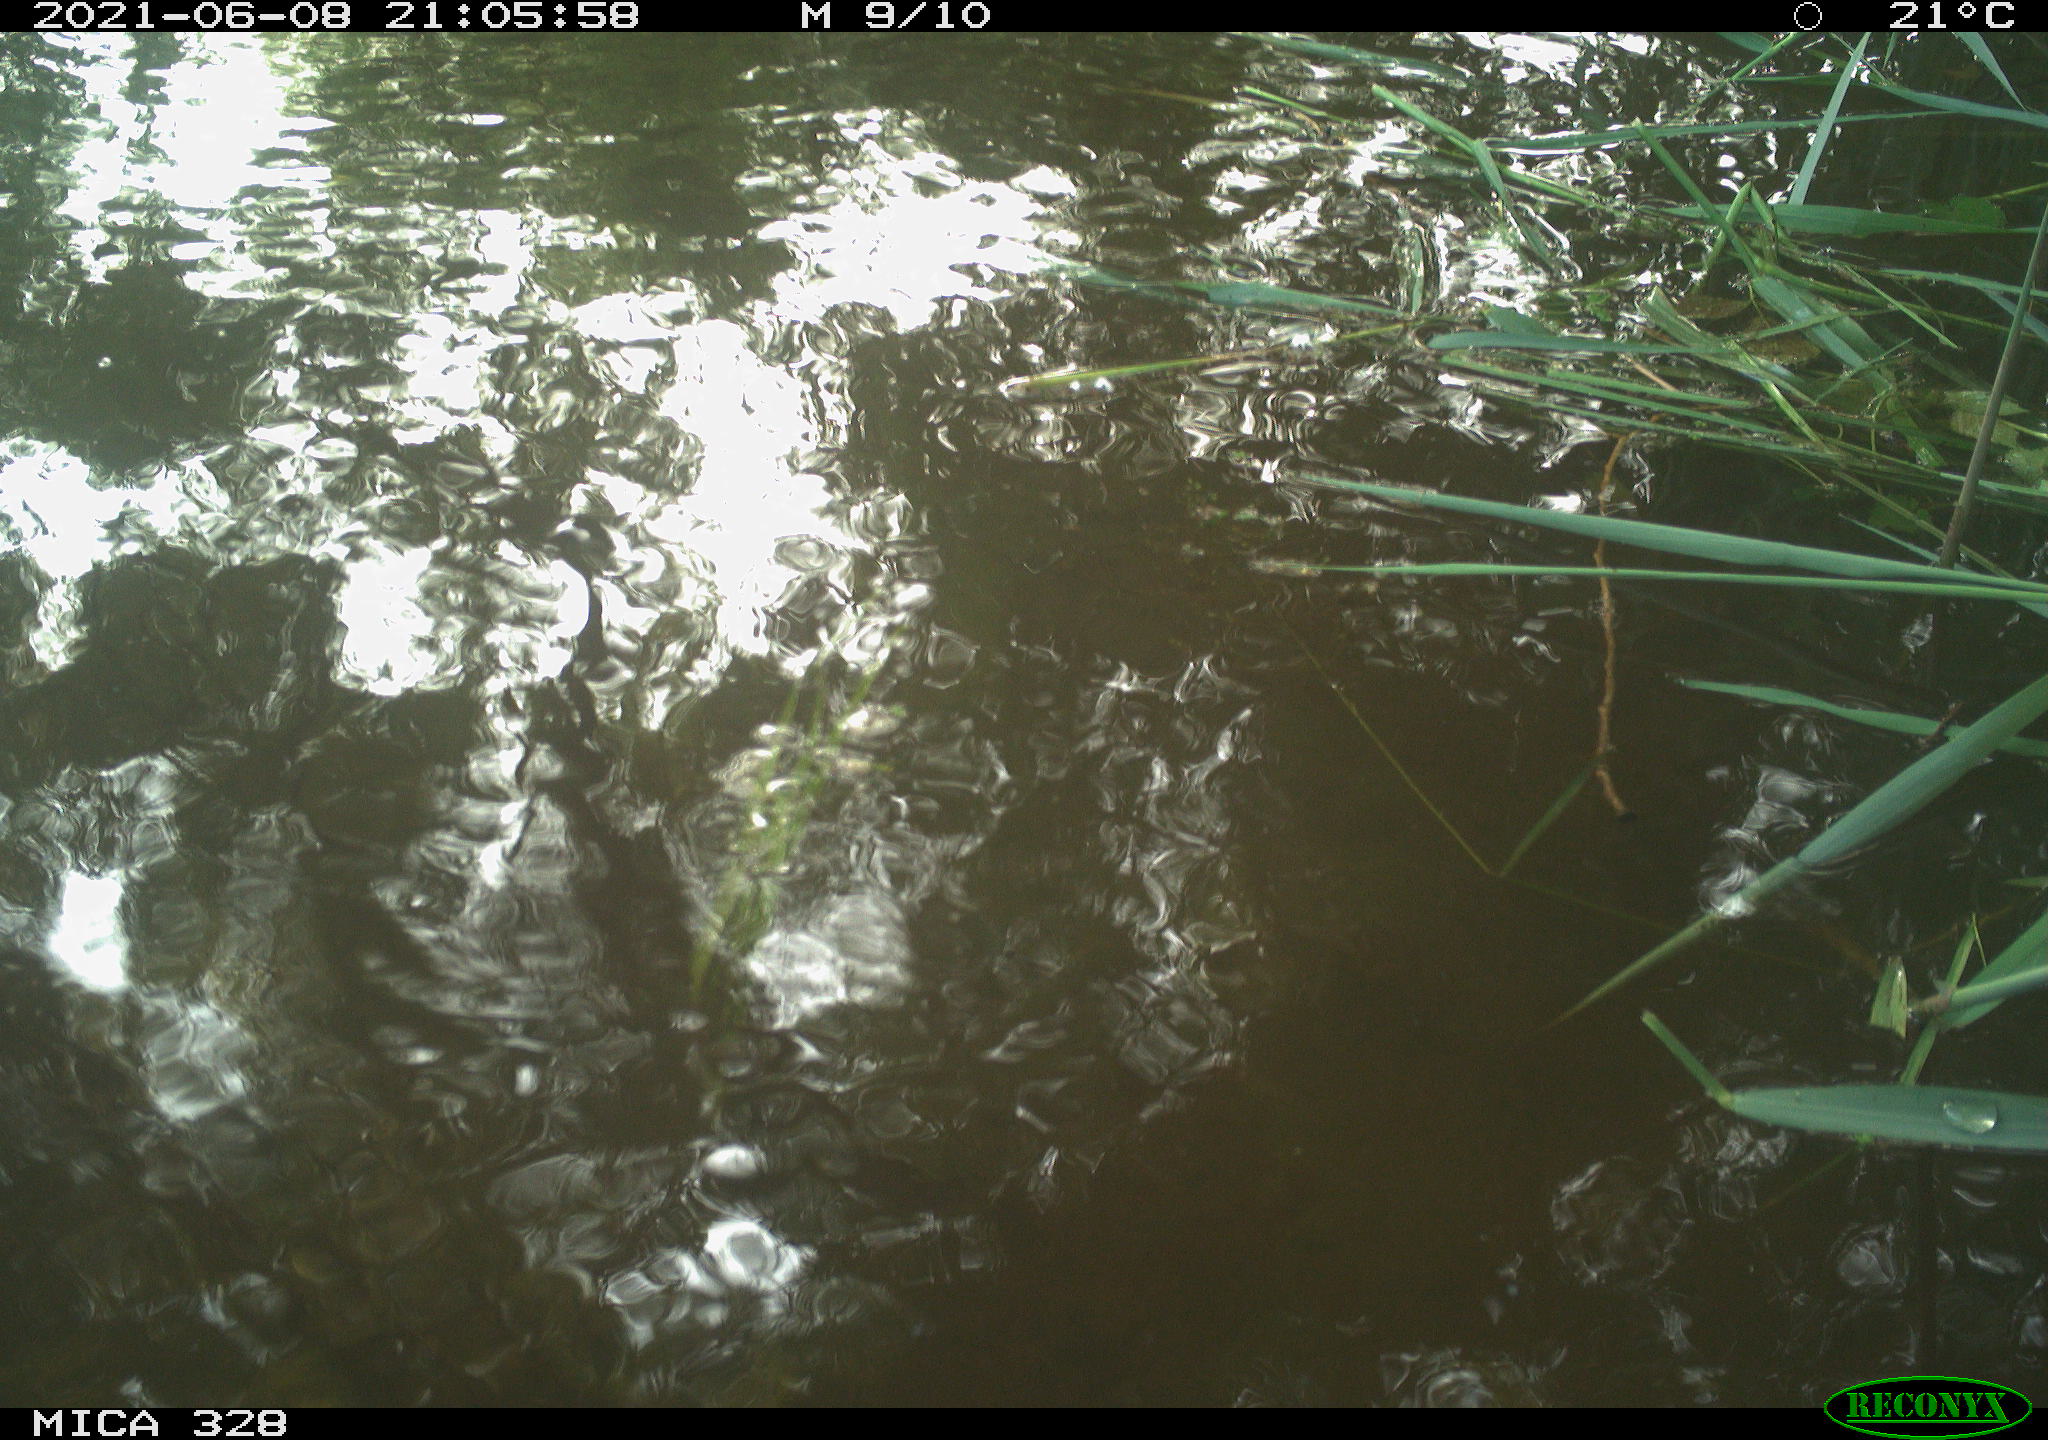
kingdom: Animalia
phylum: Chordata
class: Aves
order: Anseriformes
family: Anatidae
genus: Aix
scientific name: Aix galericulata
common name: Mandarin duck
